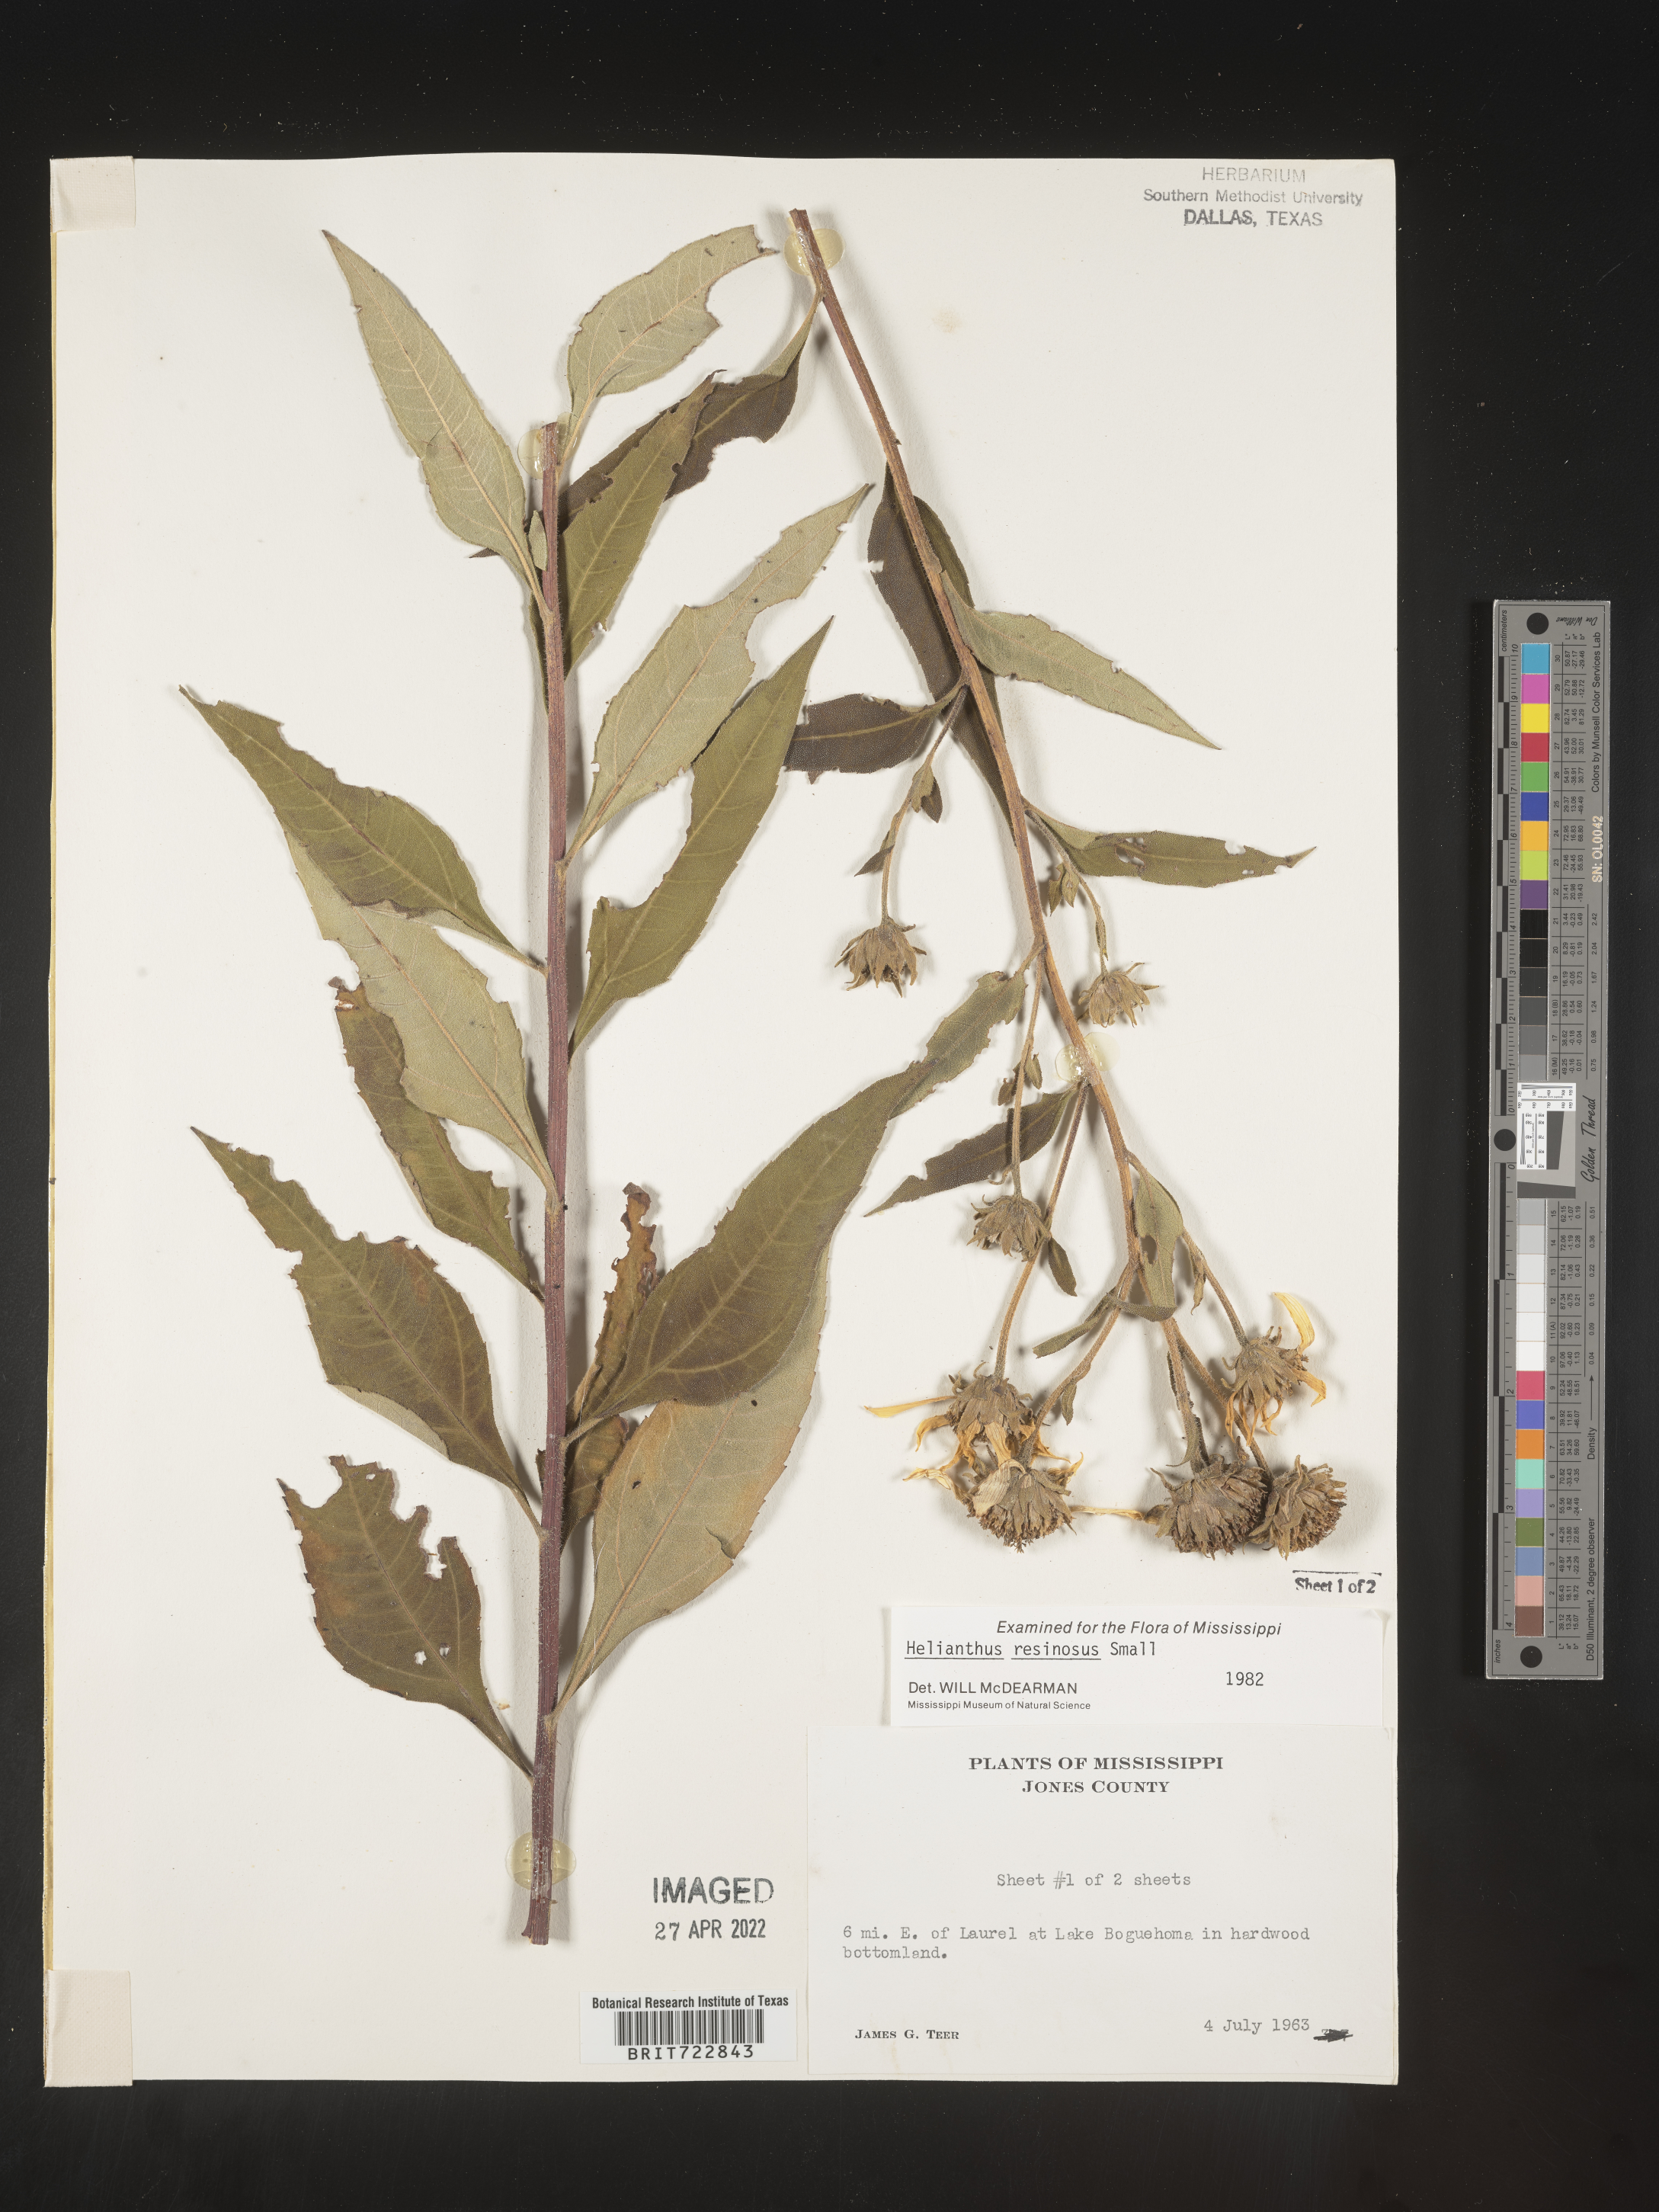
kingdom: Plantae
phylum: Tracheophyta
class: Magnoliopsida
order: Asterales
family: Asteraceae
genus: Helianthus
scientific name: Helianthus resinosus
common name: Resin-dot sunflower
